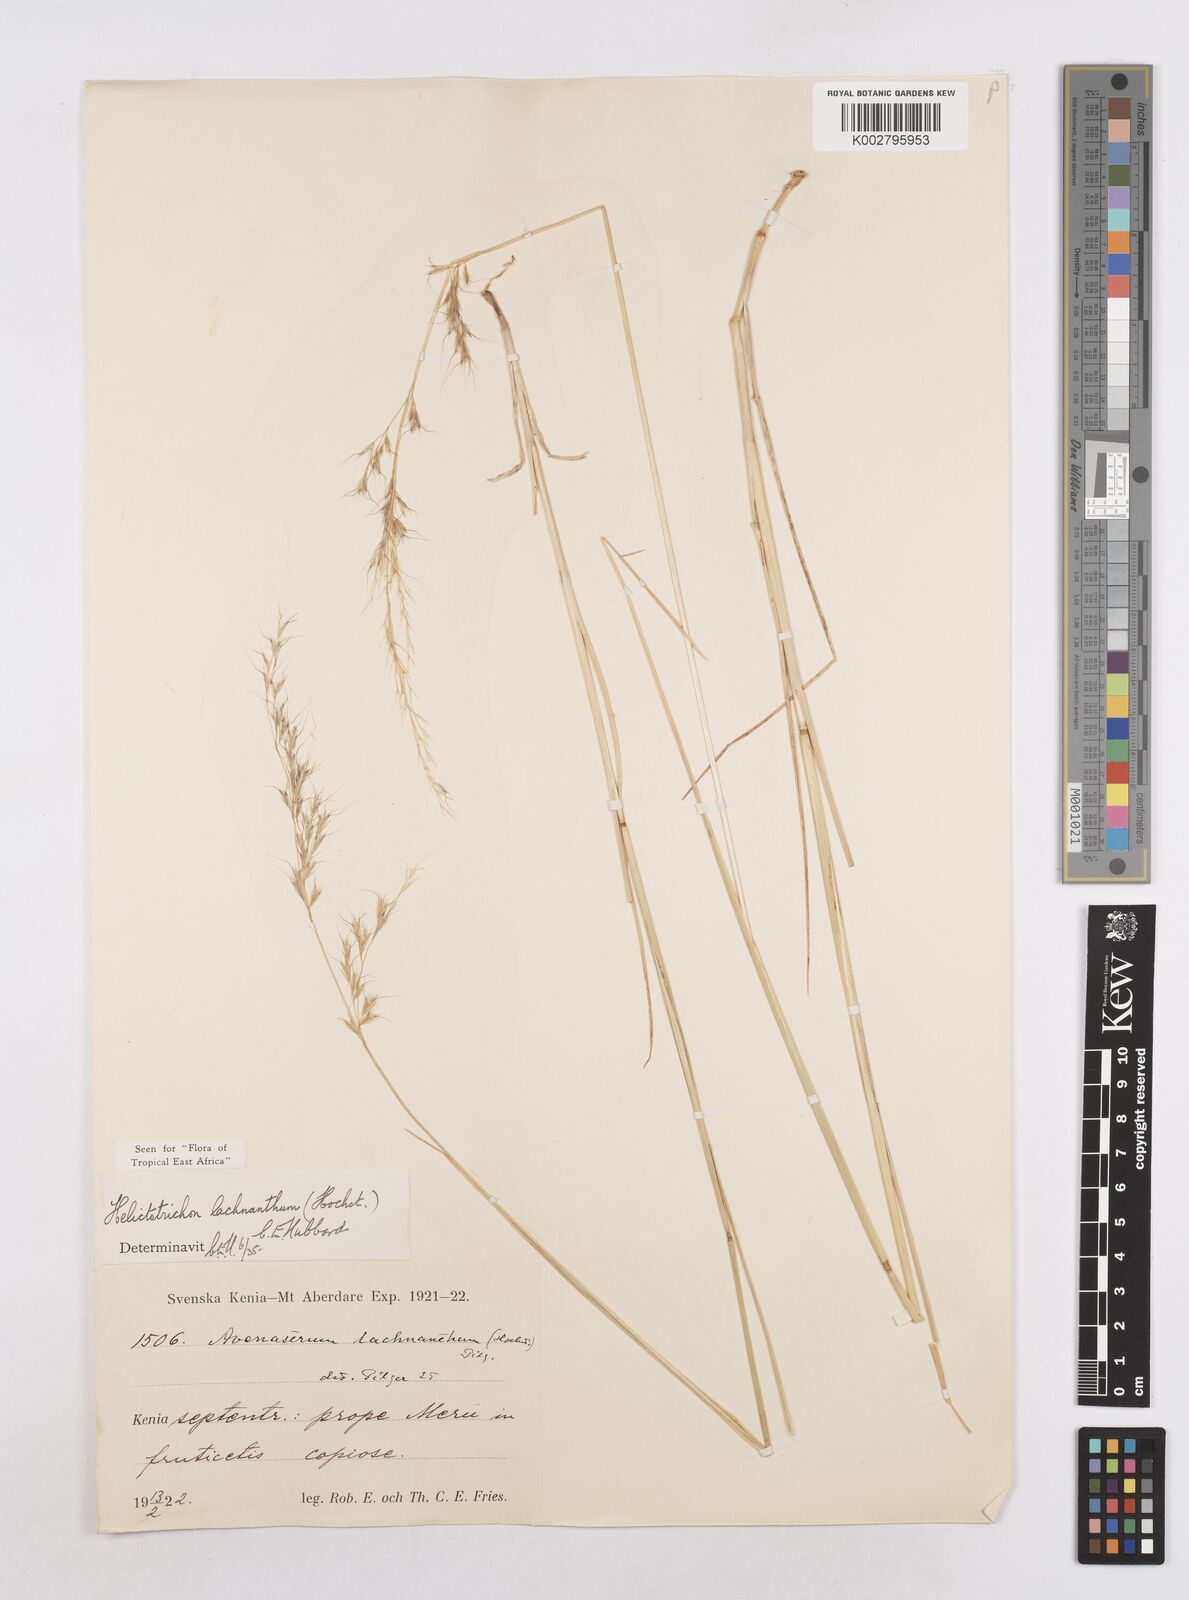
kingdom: Plantae
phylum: Tracheophyta
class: Liliopsida
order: Poales
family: Poaceae
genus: Trisetopsis
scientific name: Trisetopsis lachnantha
